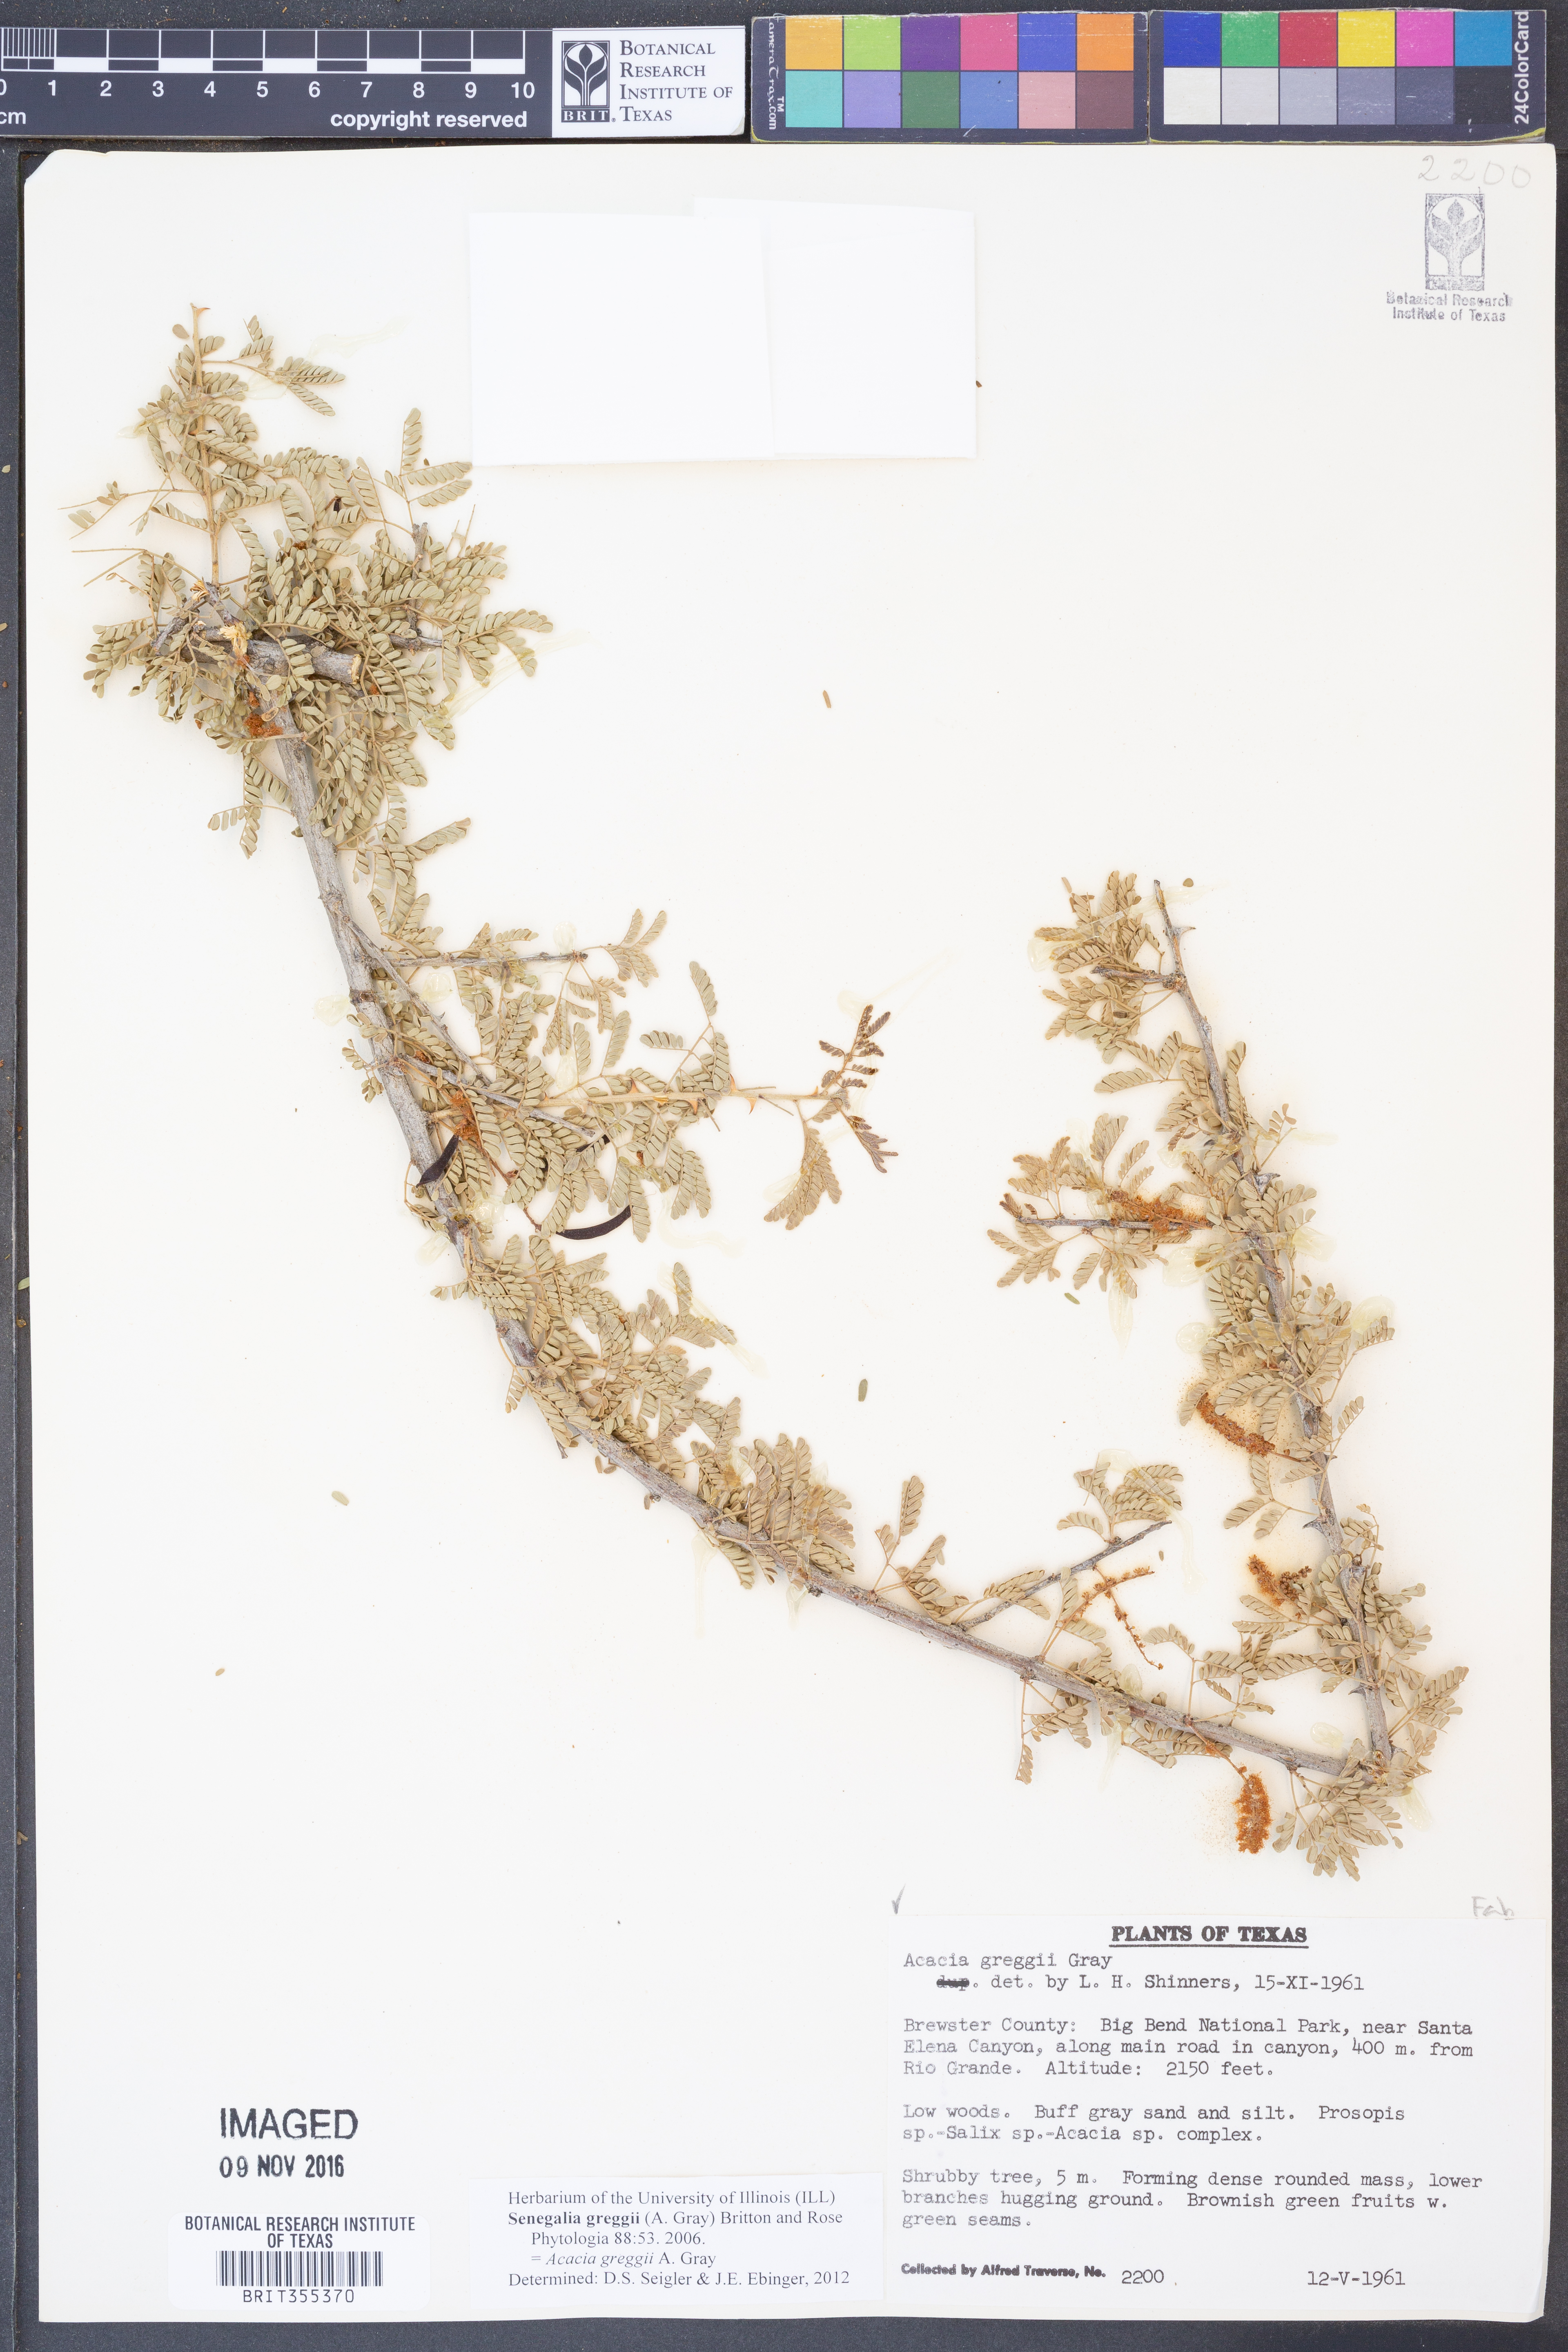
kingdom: Plantae
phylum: Tracheophyta
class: Magnoliopsida
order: Fabales
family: Fabaceae
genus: Senegalia
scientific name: Senegalia greggii
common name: Texas-mimosa
